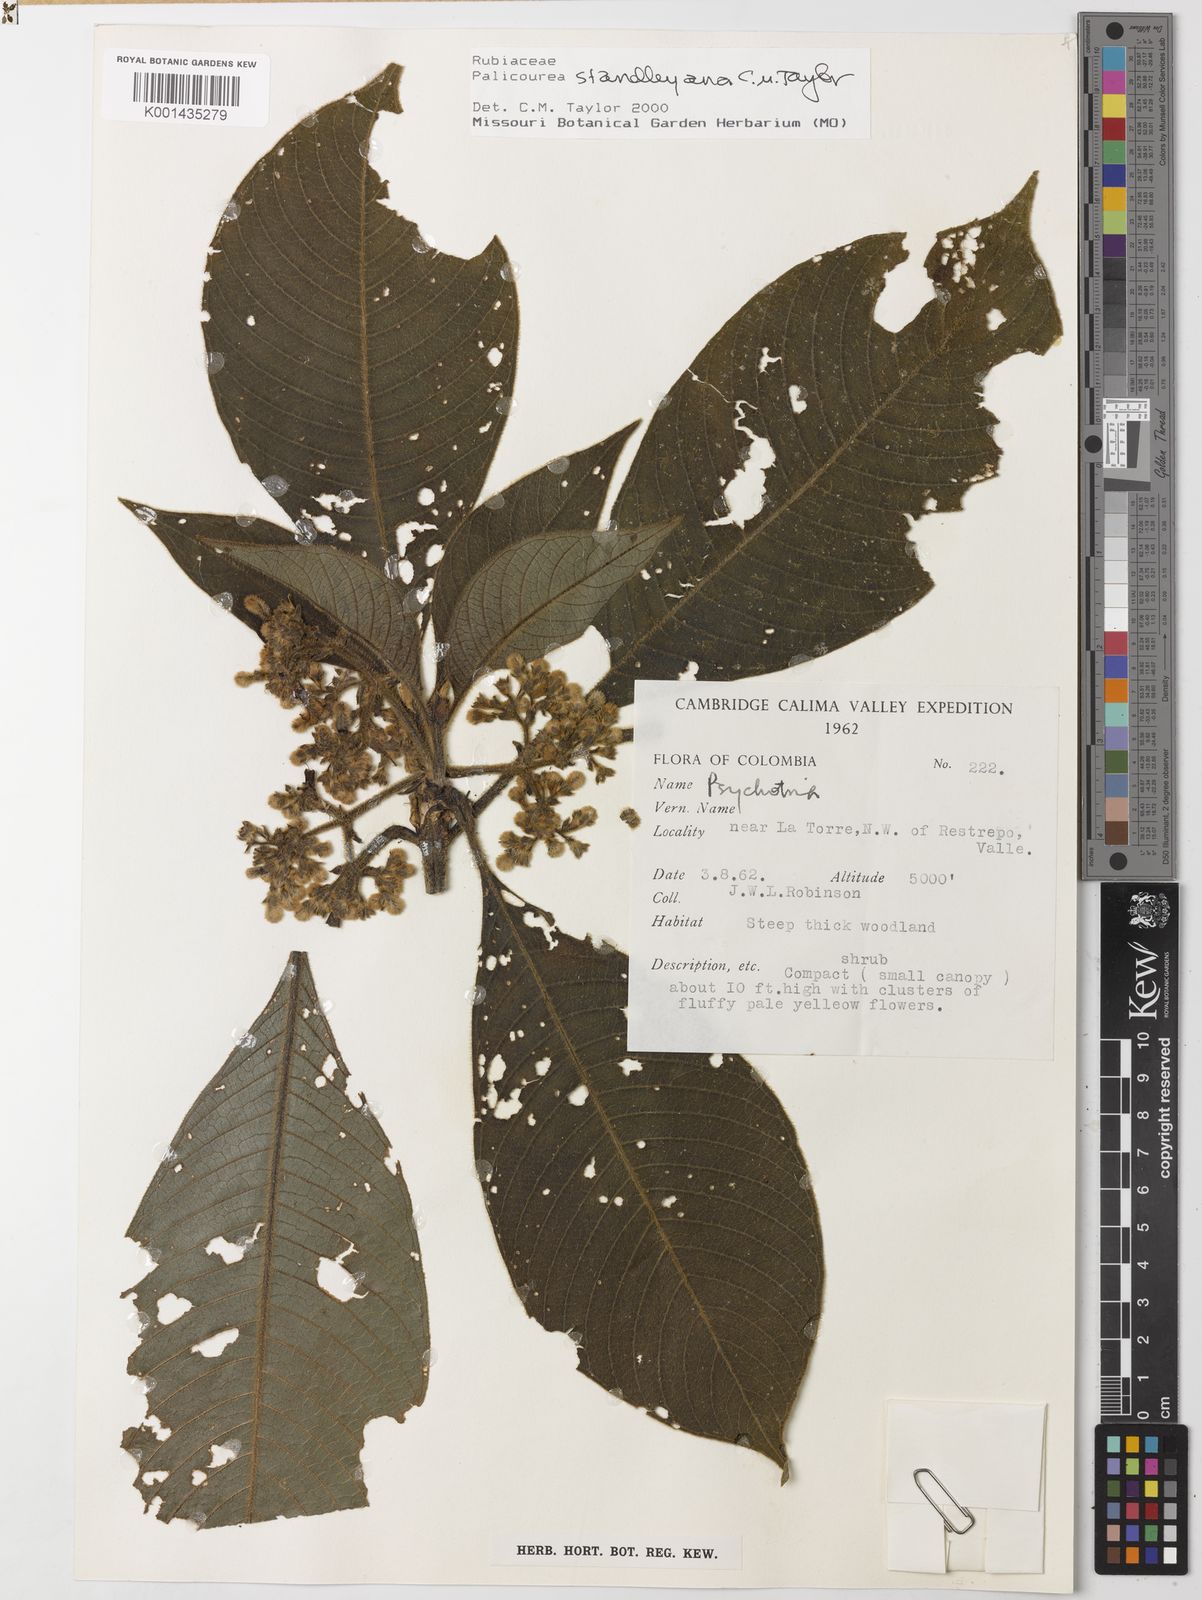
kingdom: Plantae
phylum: Tracheophyta
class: Magnoliopsida
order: Gentianales
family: Rubiaceae
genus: Palicourea
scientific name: Palicourea standleyana
